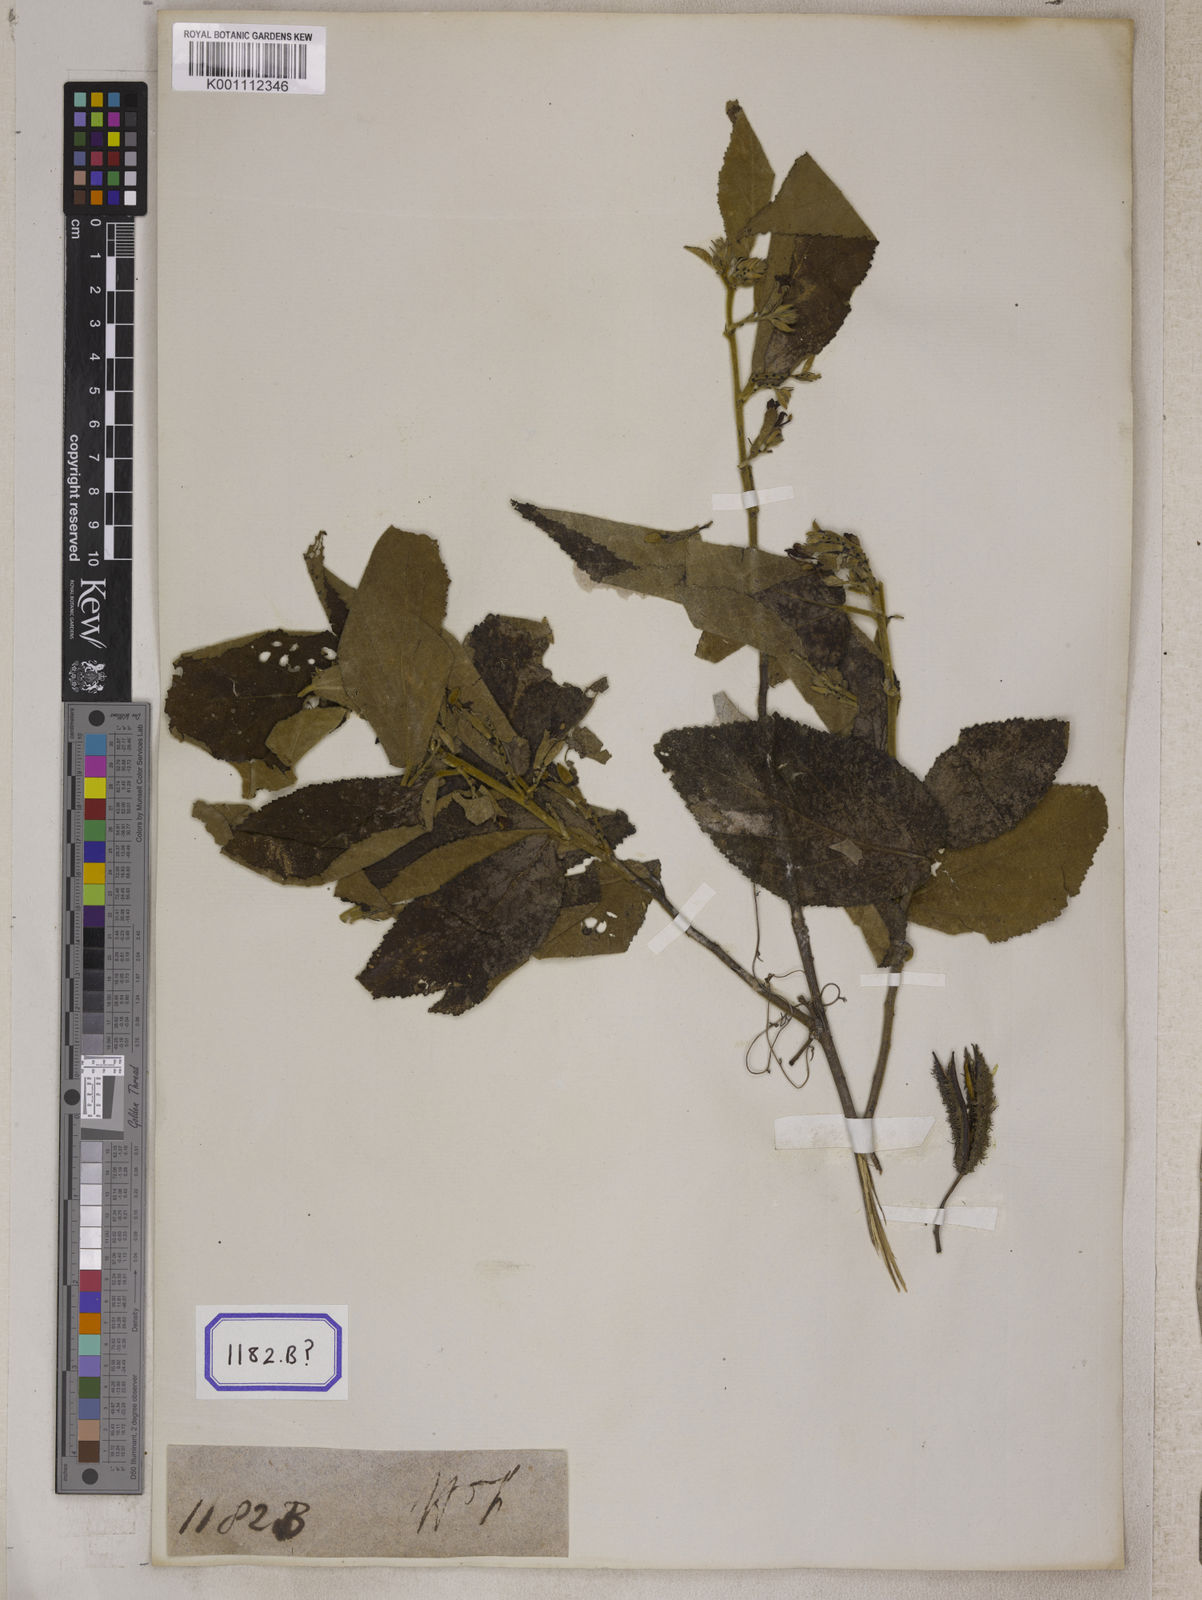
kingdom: Plantae
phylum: Tracheophyta
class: Magnoliopsida
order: Malvales
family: Malvaceae
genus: Helicteres
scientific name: Helicteres
